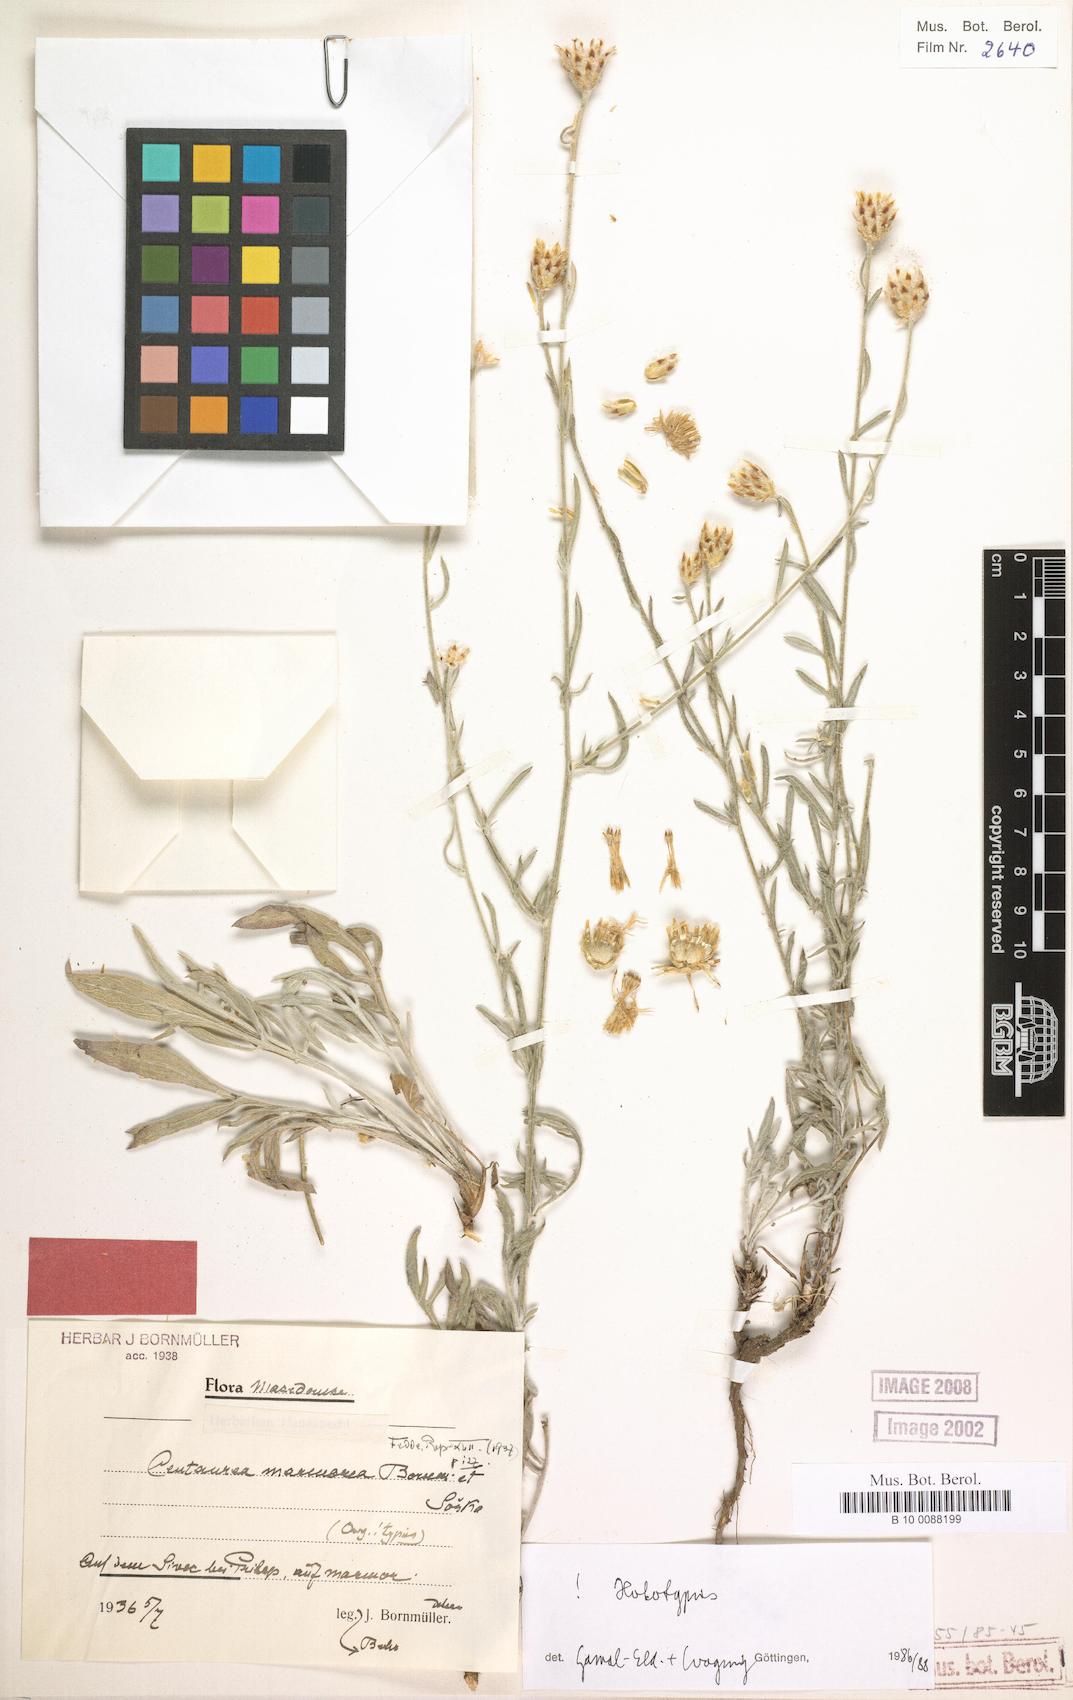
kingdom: Plantae
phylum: Tracheophyta
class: Magnoliopsida
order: Asterales
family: Asteraceae
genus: Centaurea
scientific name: Centaurea marmorea
